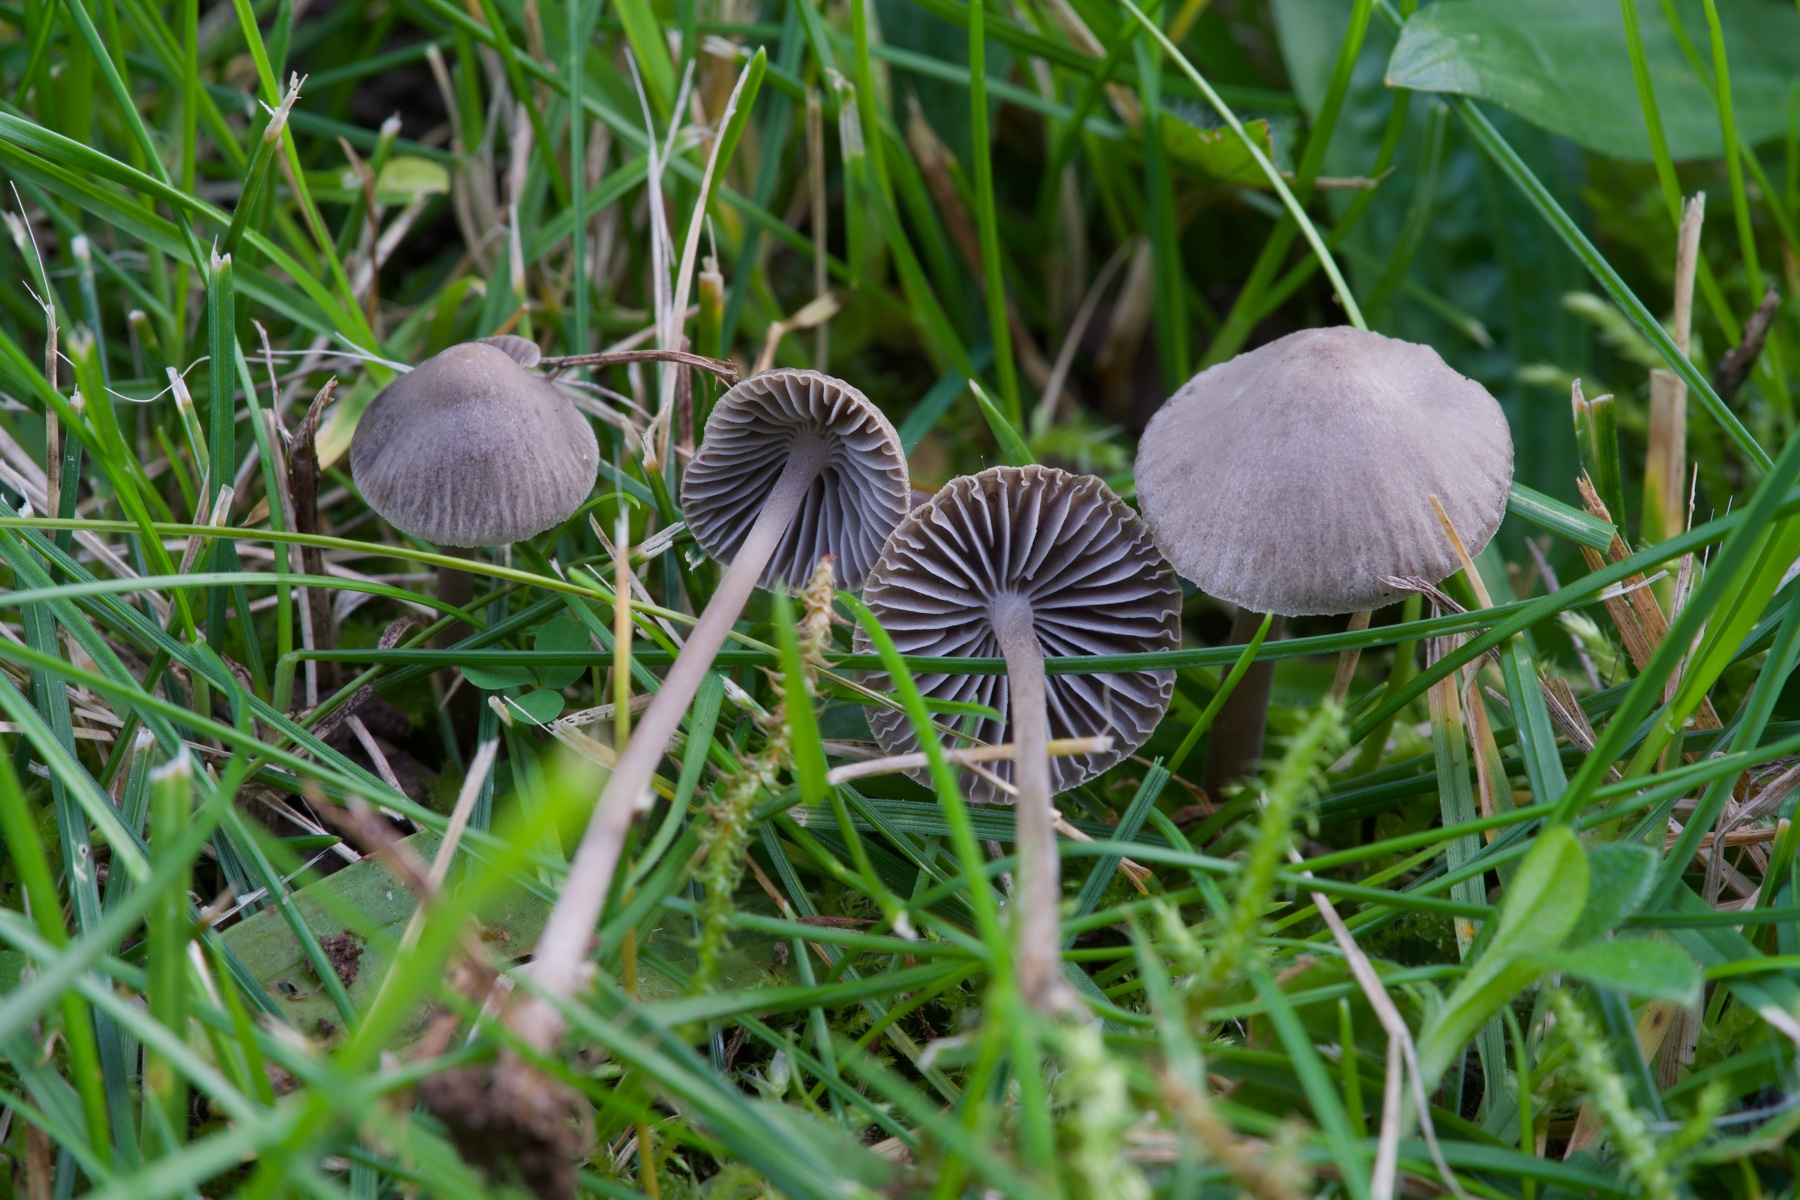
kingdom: Fungi
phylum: Basidiomycota
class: Agaricomycetes
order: Agaricales
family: Mycenaceae
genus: Mycena
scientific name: Mycena aetites
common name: plæne-huesvamp
